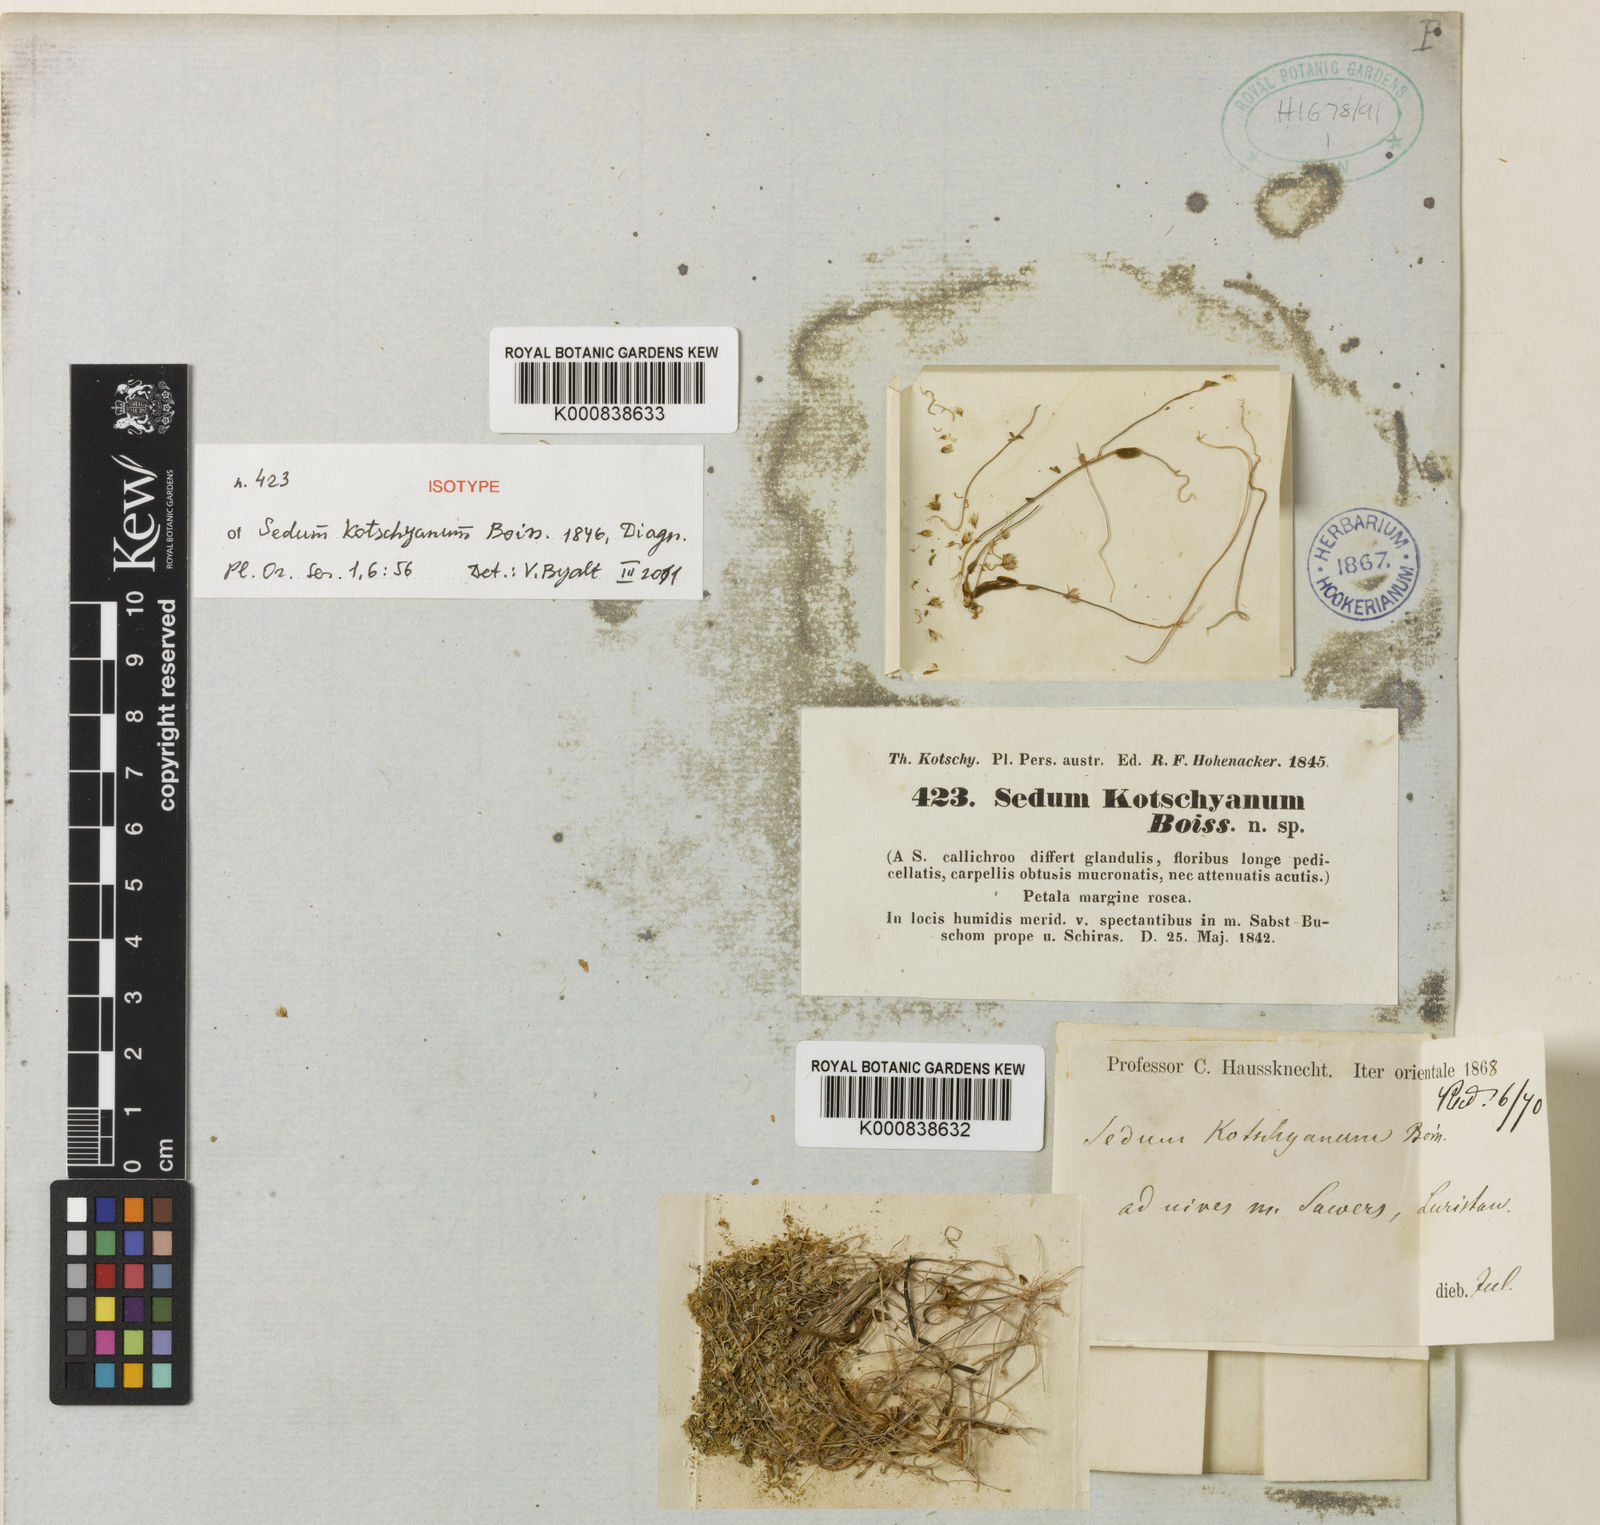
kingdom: Plantae
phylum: Tracheophyta
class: Magnoliopsida
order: Saxifragales
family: Crassulaceae
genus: Sedum
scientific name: Sedum kotschyanum
